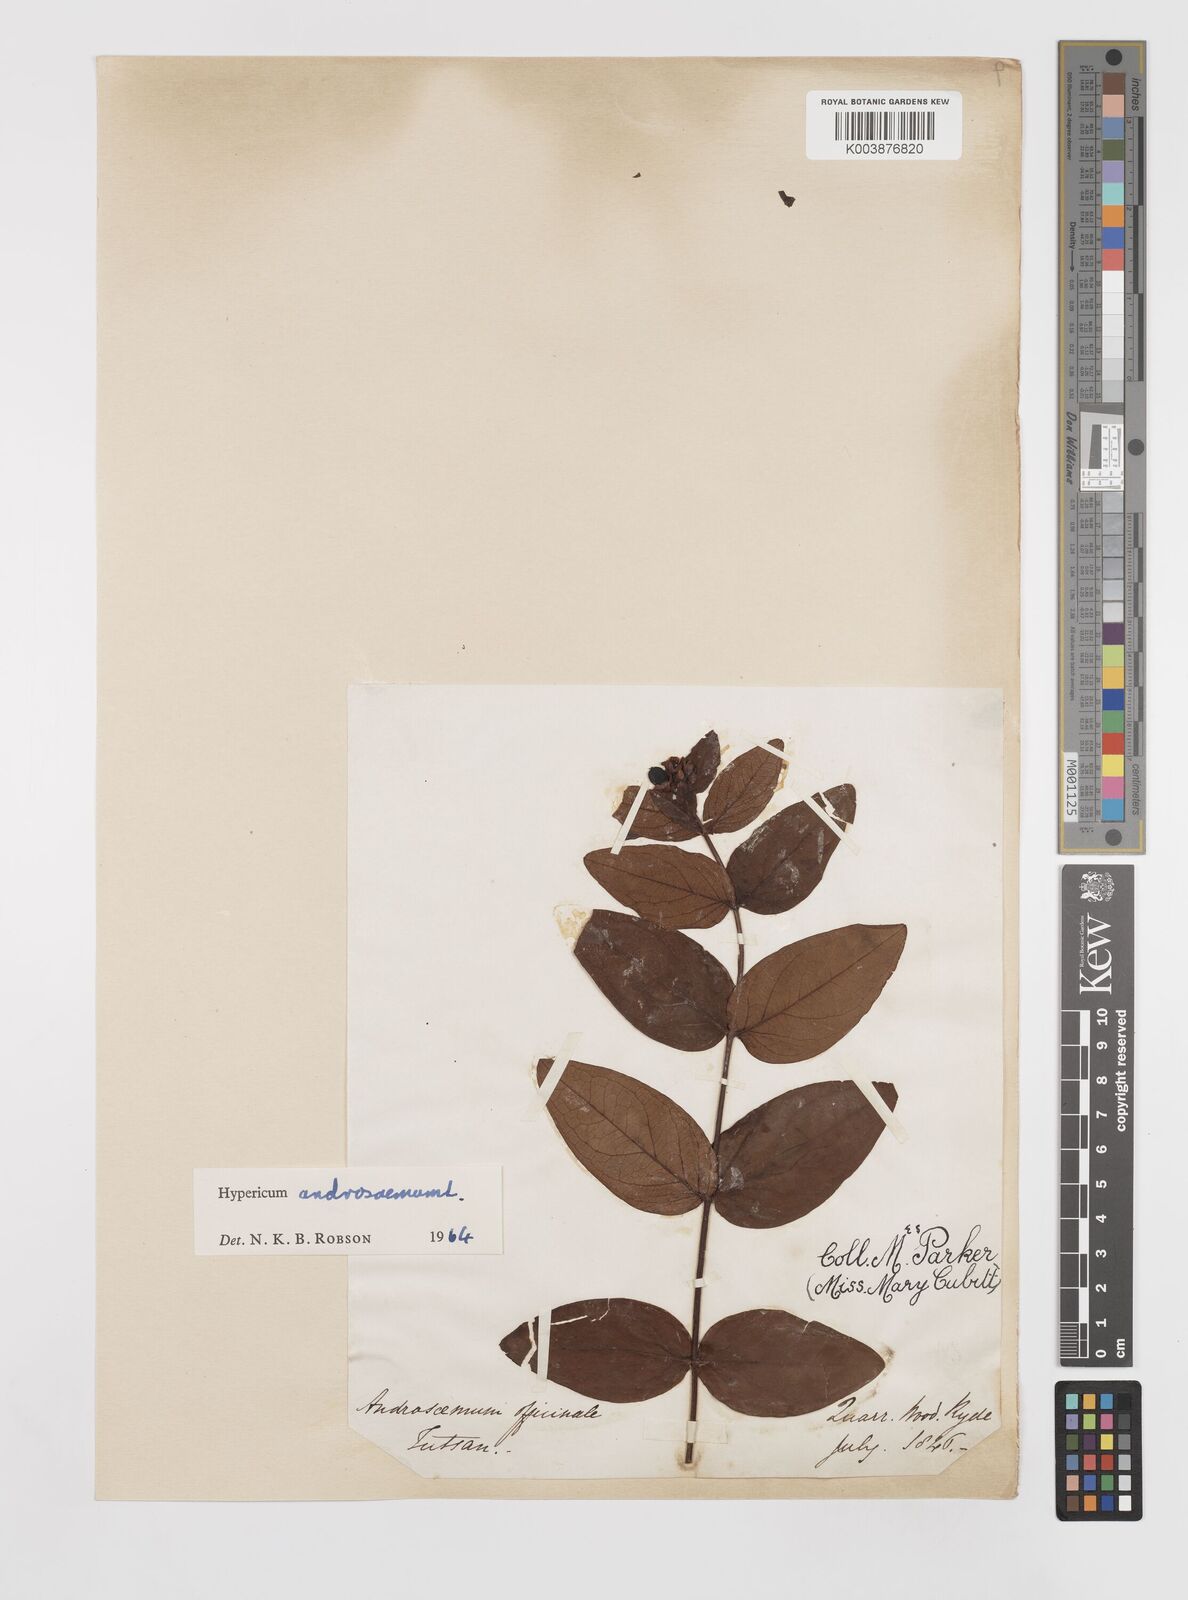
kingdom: Plantae
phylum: Tracheophyta
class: Magnoliopsida
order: Malpighiales
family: Hypericaceae
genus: Hypericum
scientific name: Hypericum androsaemum
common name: Sweet-amber
